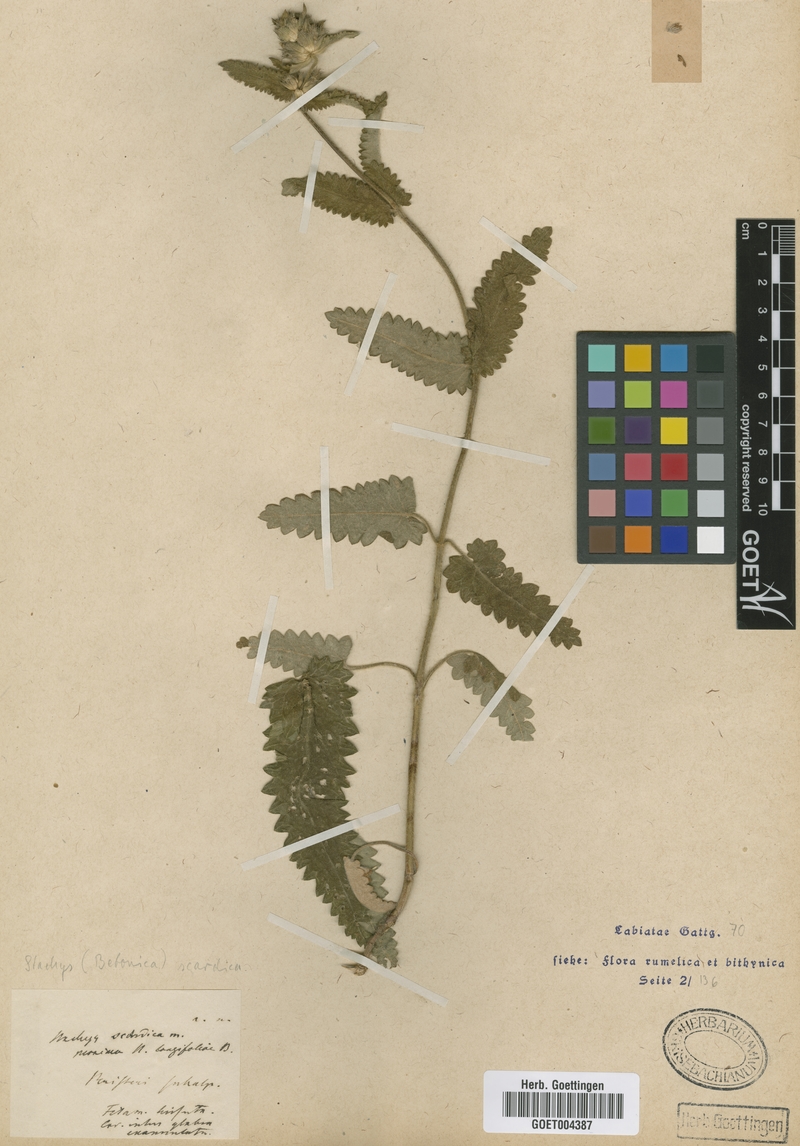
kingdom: Plantae
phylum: Tracheophyta
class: Magnoliopsida
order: Lamiales
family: Lamiaceae
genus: Betonica
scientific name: Betonica scardica
